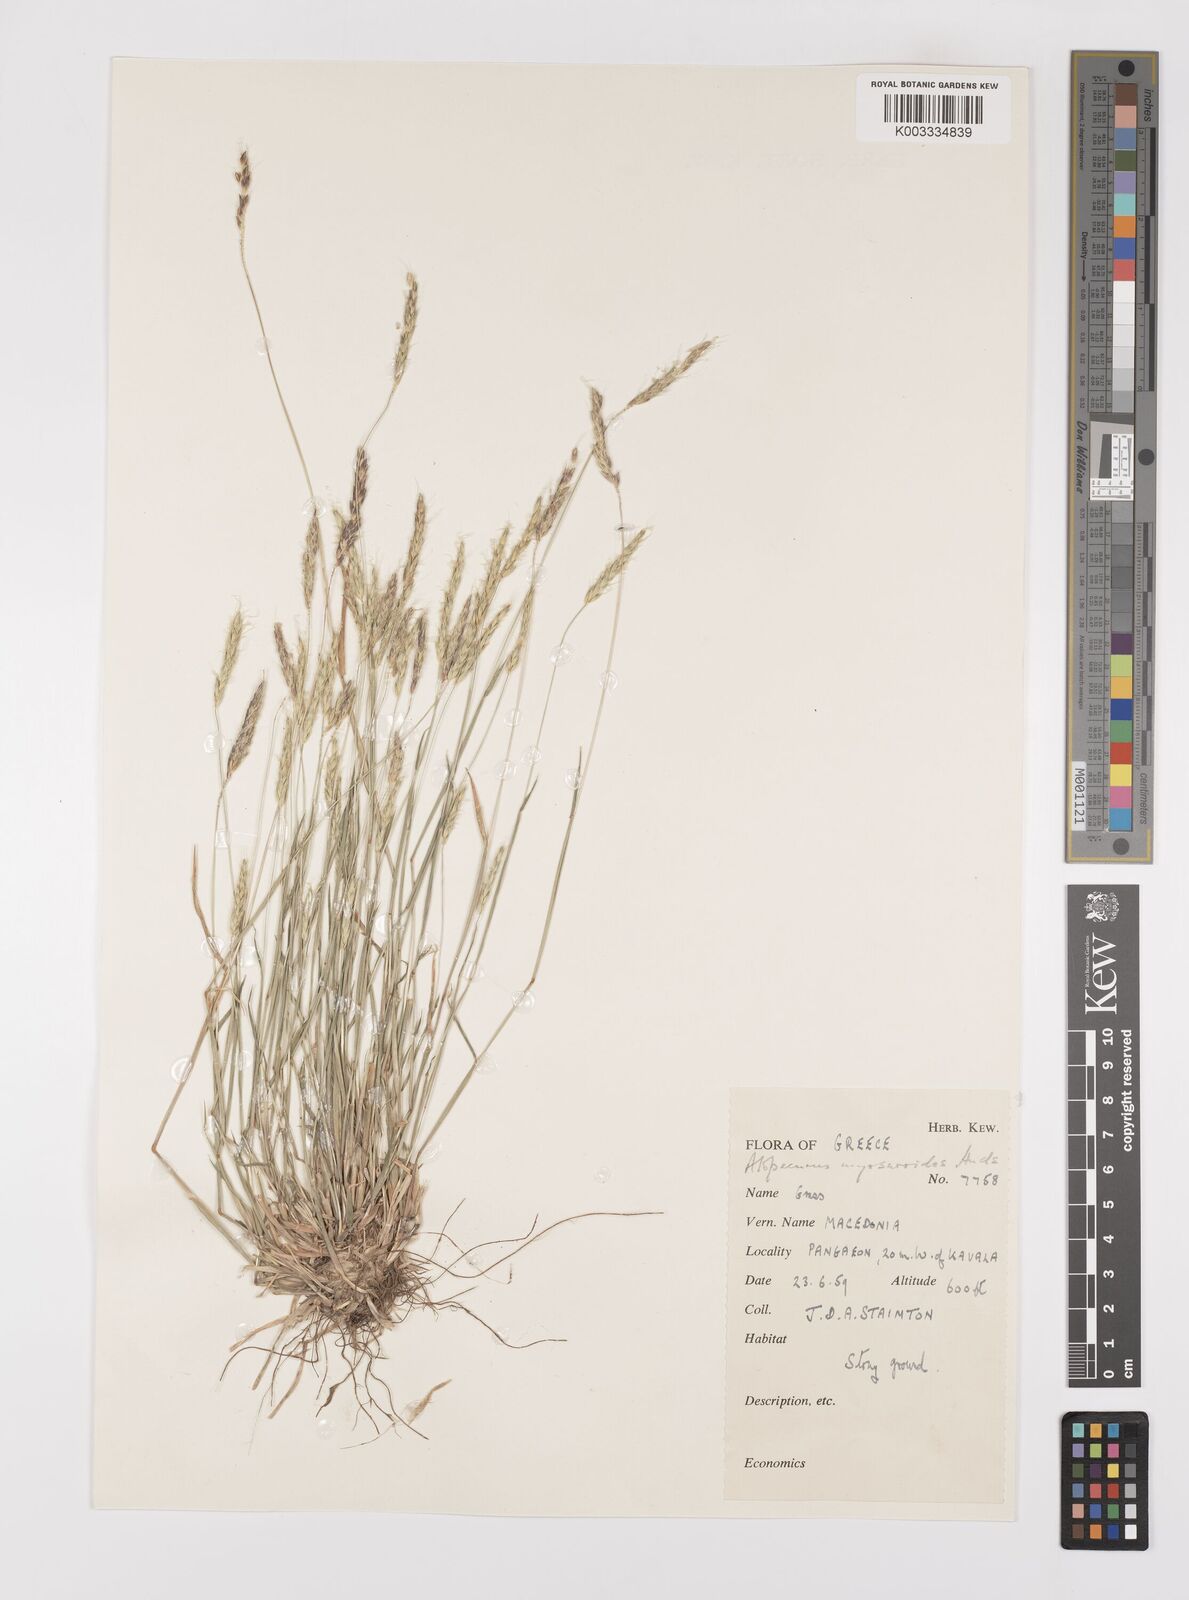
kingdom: Plantae
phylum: Tracheophyta
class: Liliopsida
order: Poales
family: Poaceae
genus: Alopecurus
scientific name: Alopecurus myosuroides
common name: Black-grass
